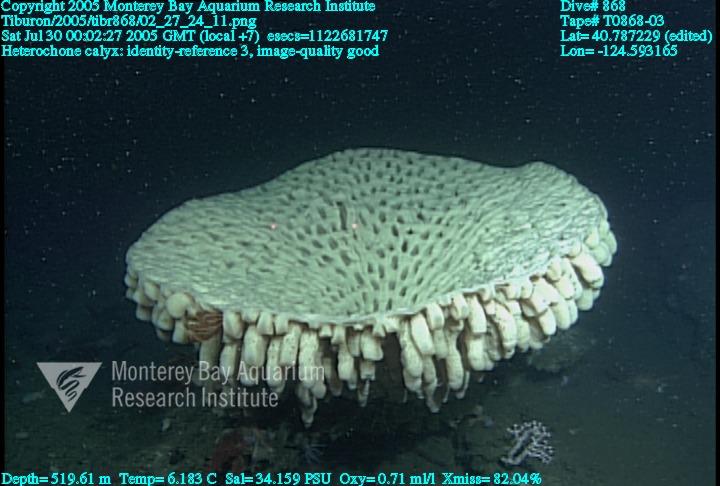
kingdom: Animalia
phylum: Porifera
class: Hexactinellida
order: Sceptrulophora
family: Aphrocallistidae
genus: Heterochone
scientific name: Heterochone calyx
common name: Fingered goblet glass sponge
